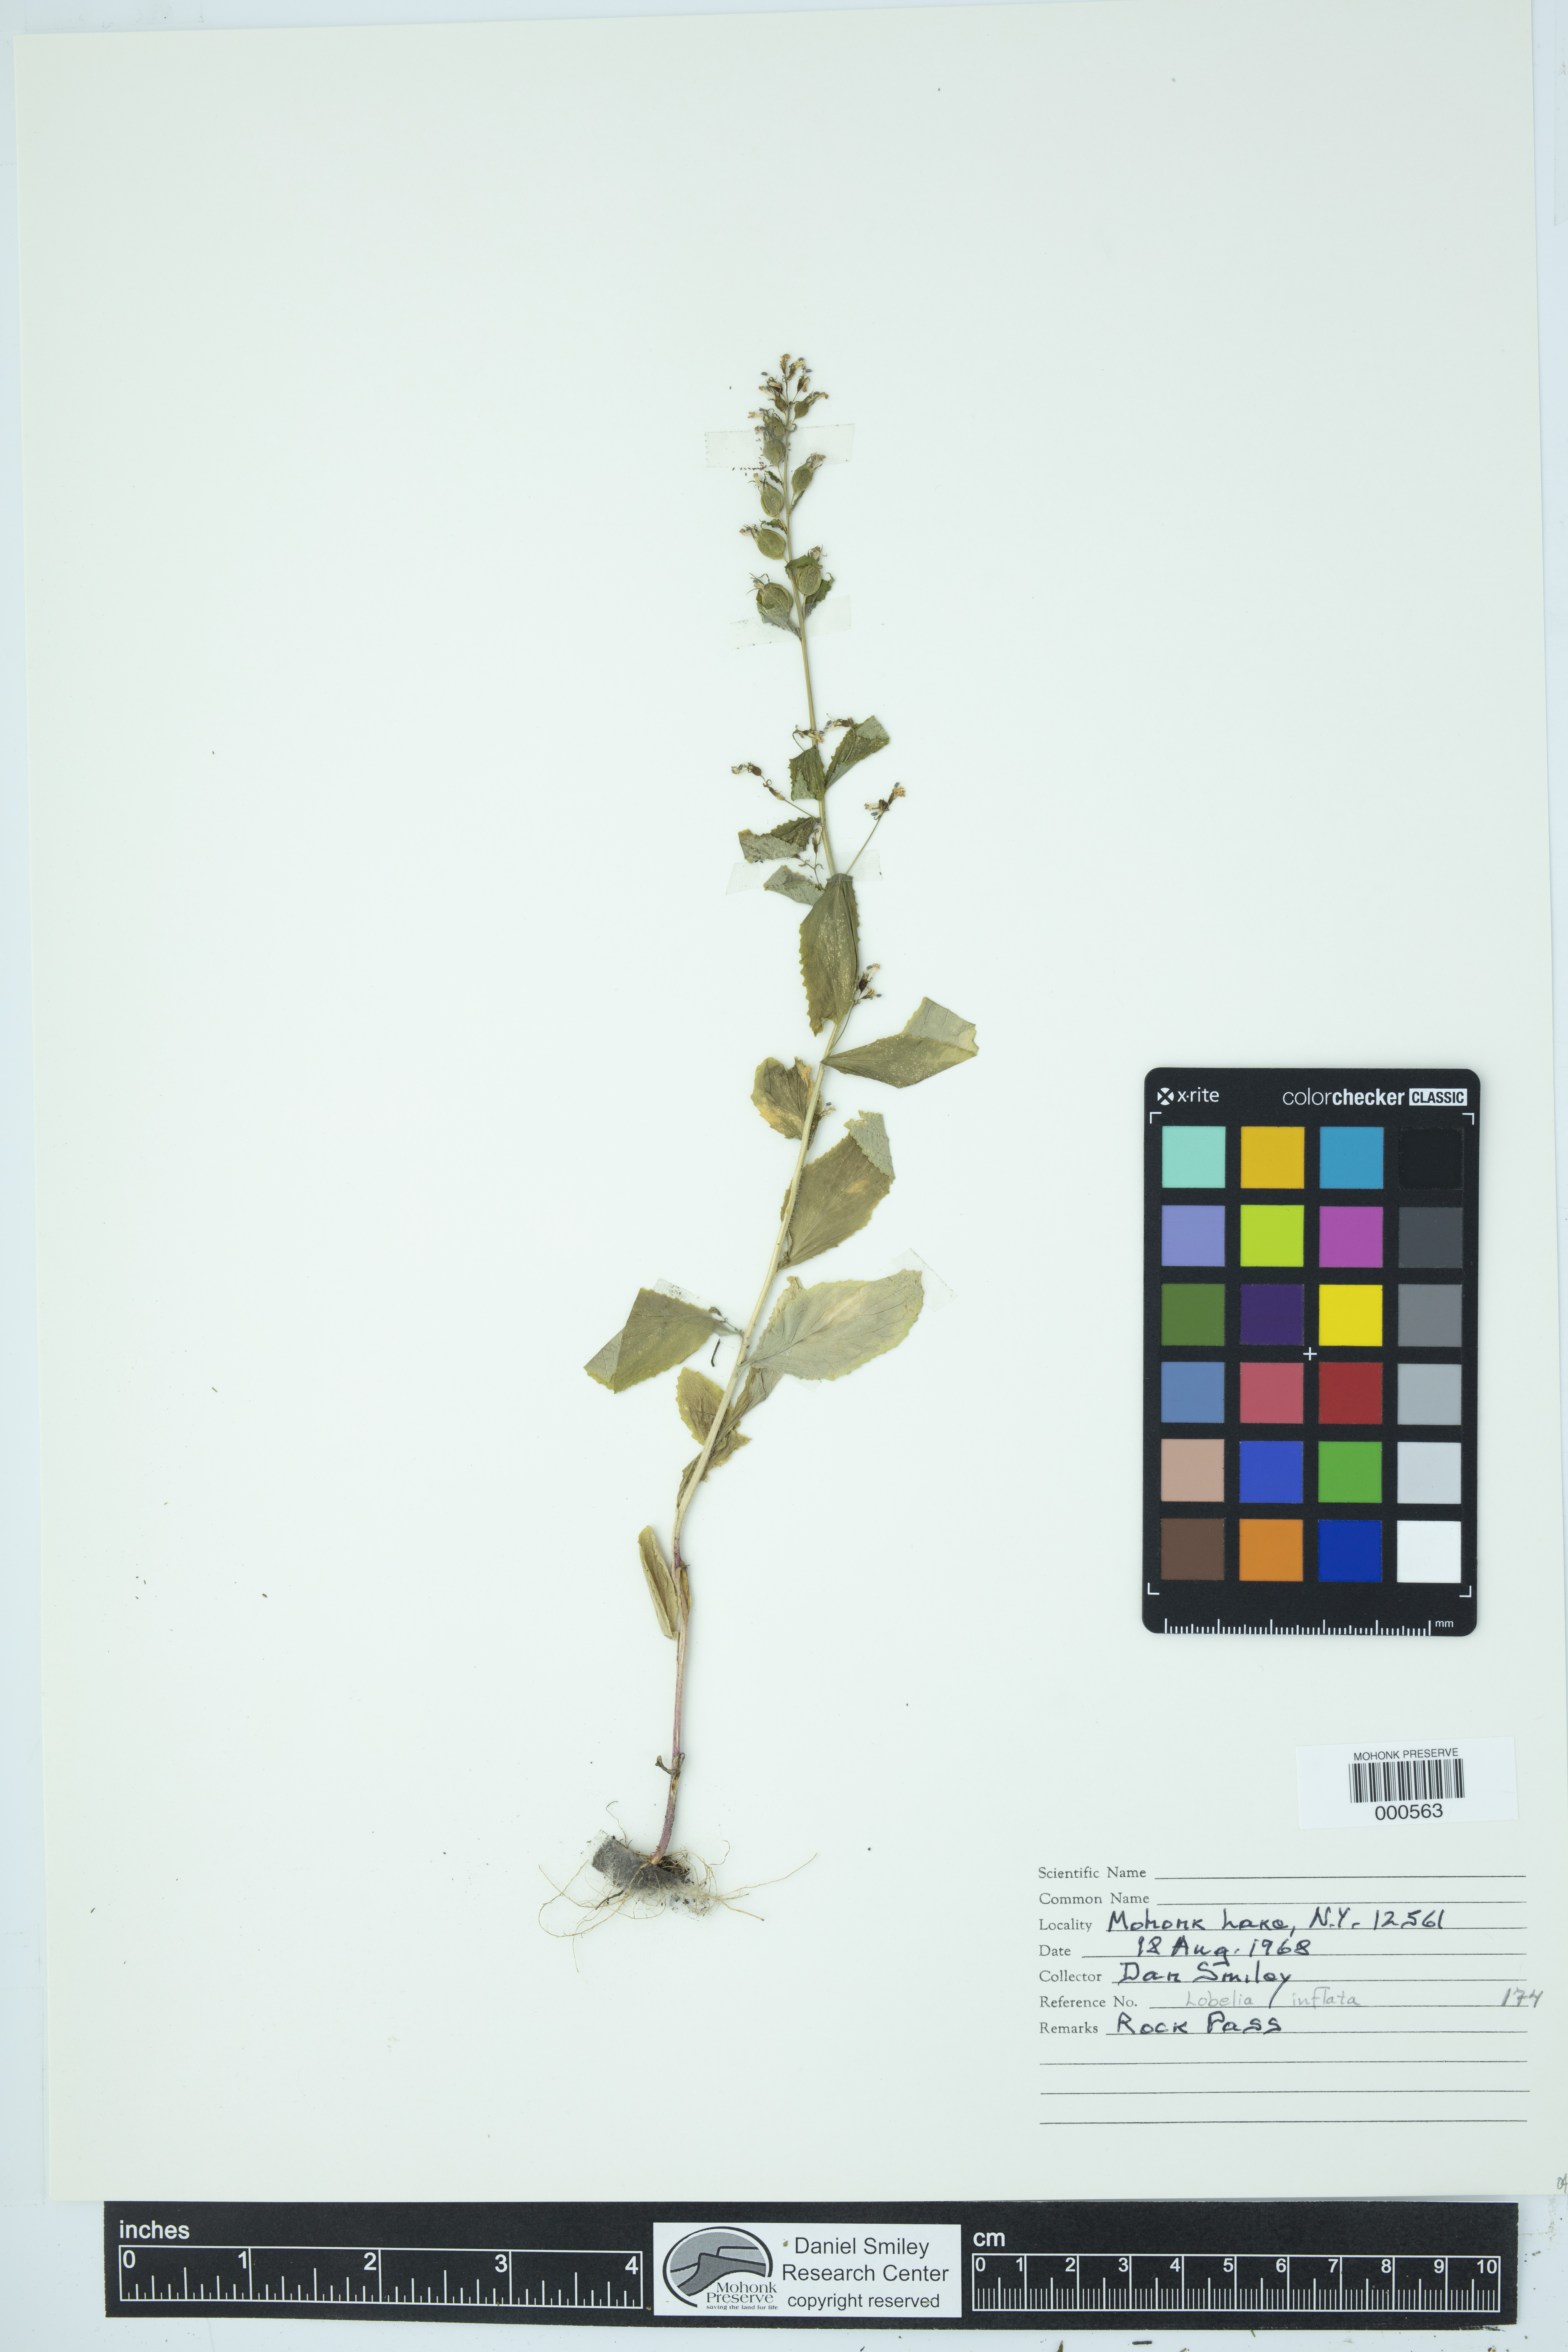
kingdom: Plantae
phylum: Tracheophyta
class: Magnoliopsida
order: Asterales
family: Campanulaceae
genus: Lobelia
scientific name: Lobelia inflata
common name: Indian tobacco
